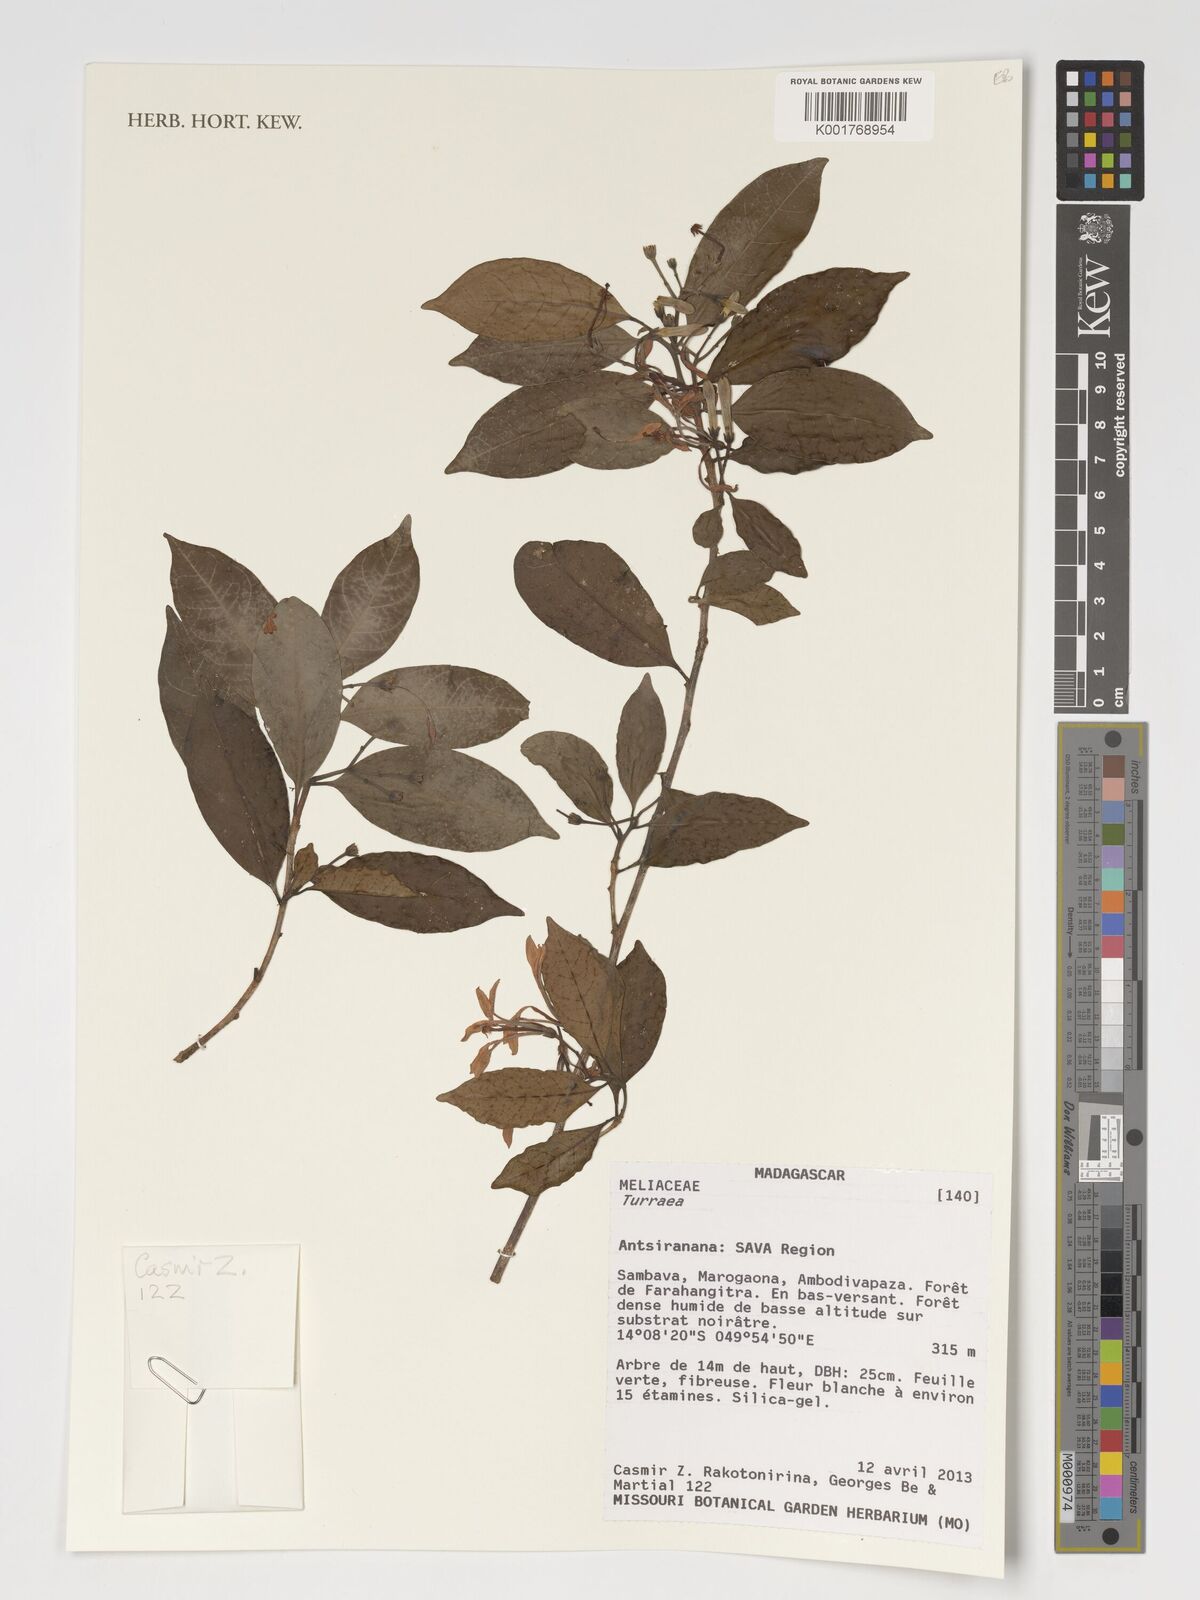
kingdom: Plantae
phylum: Tracheophyta
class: Magnoliopsida
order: Sapindales
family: Meliaceae
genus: Turraea
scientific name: Turraea
